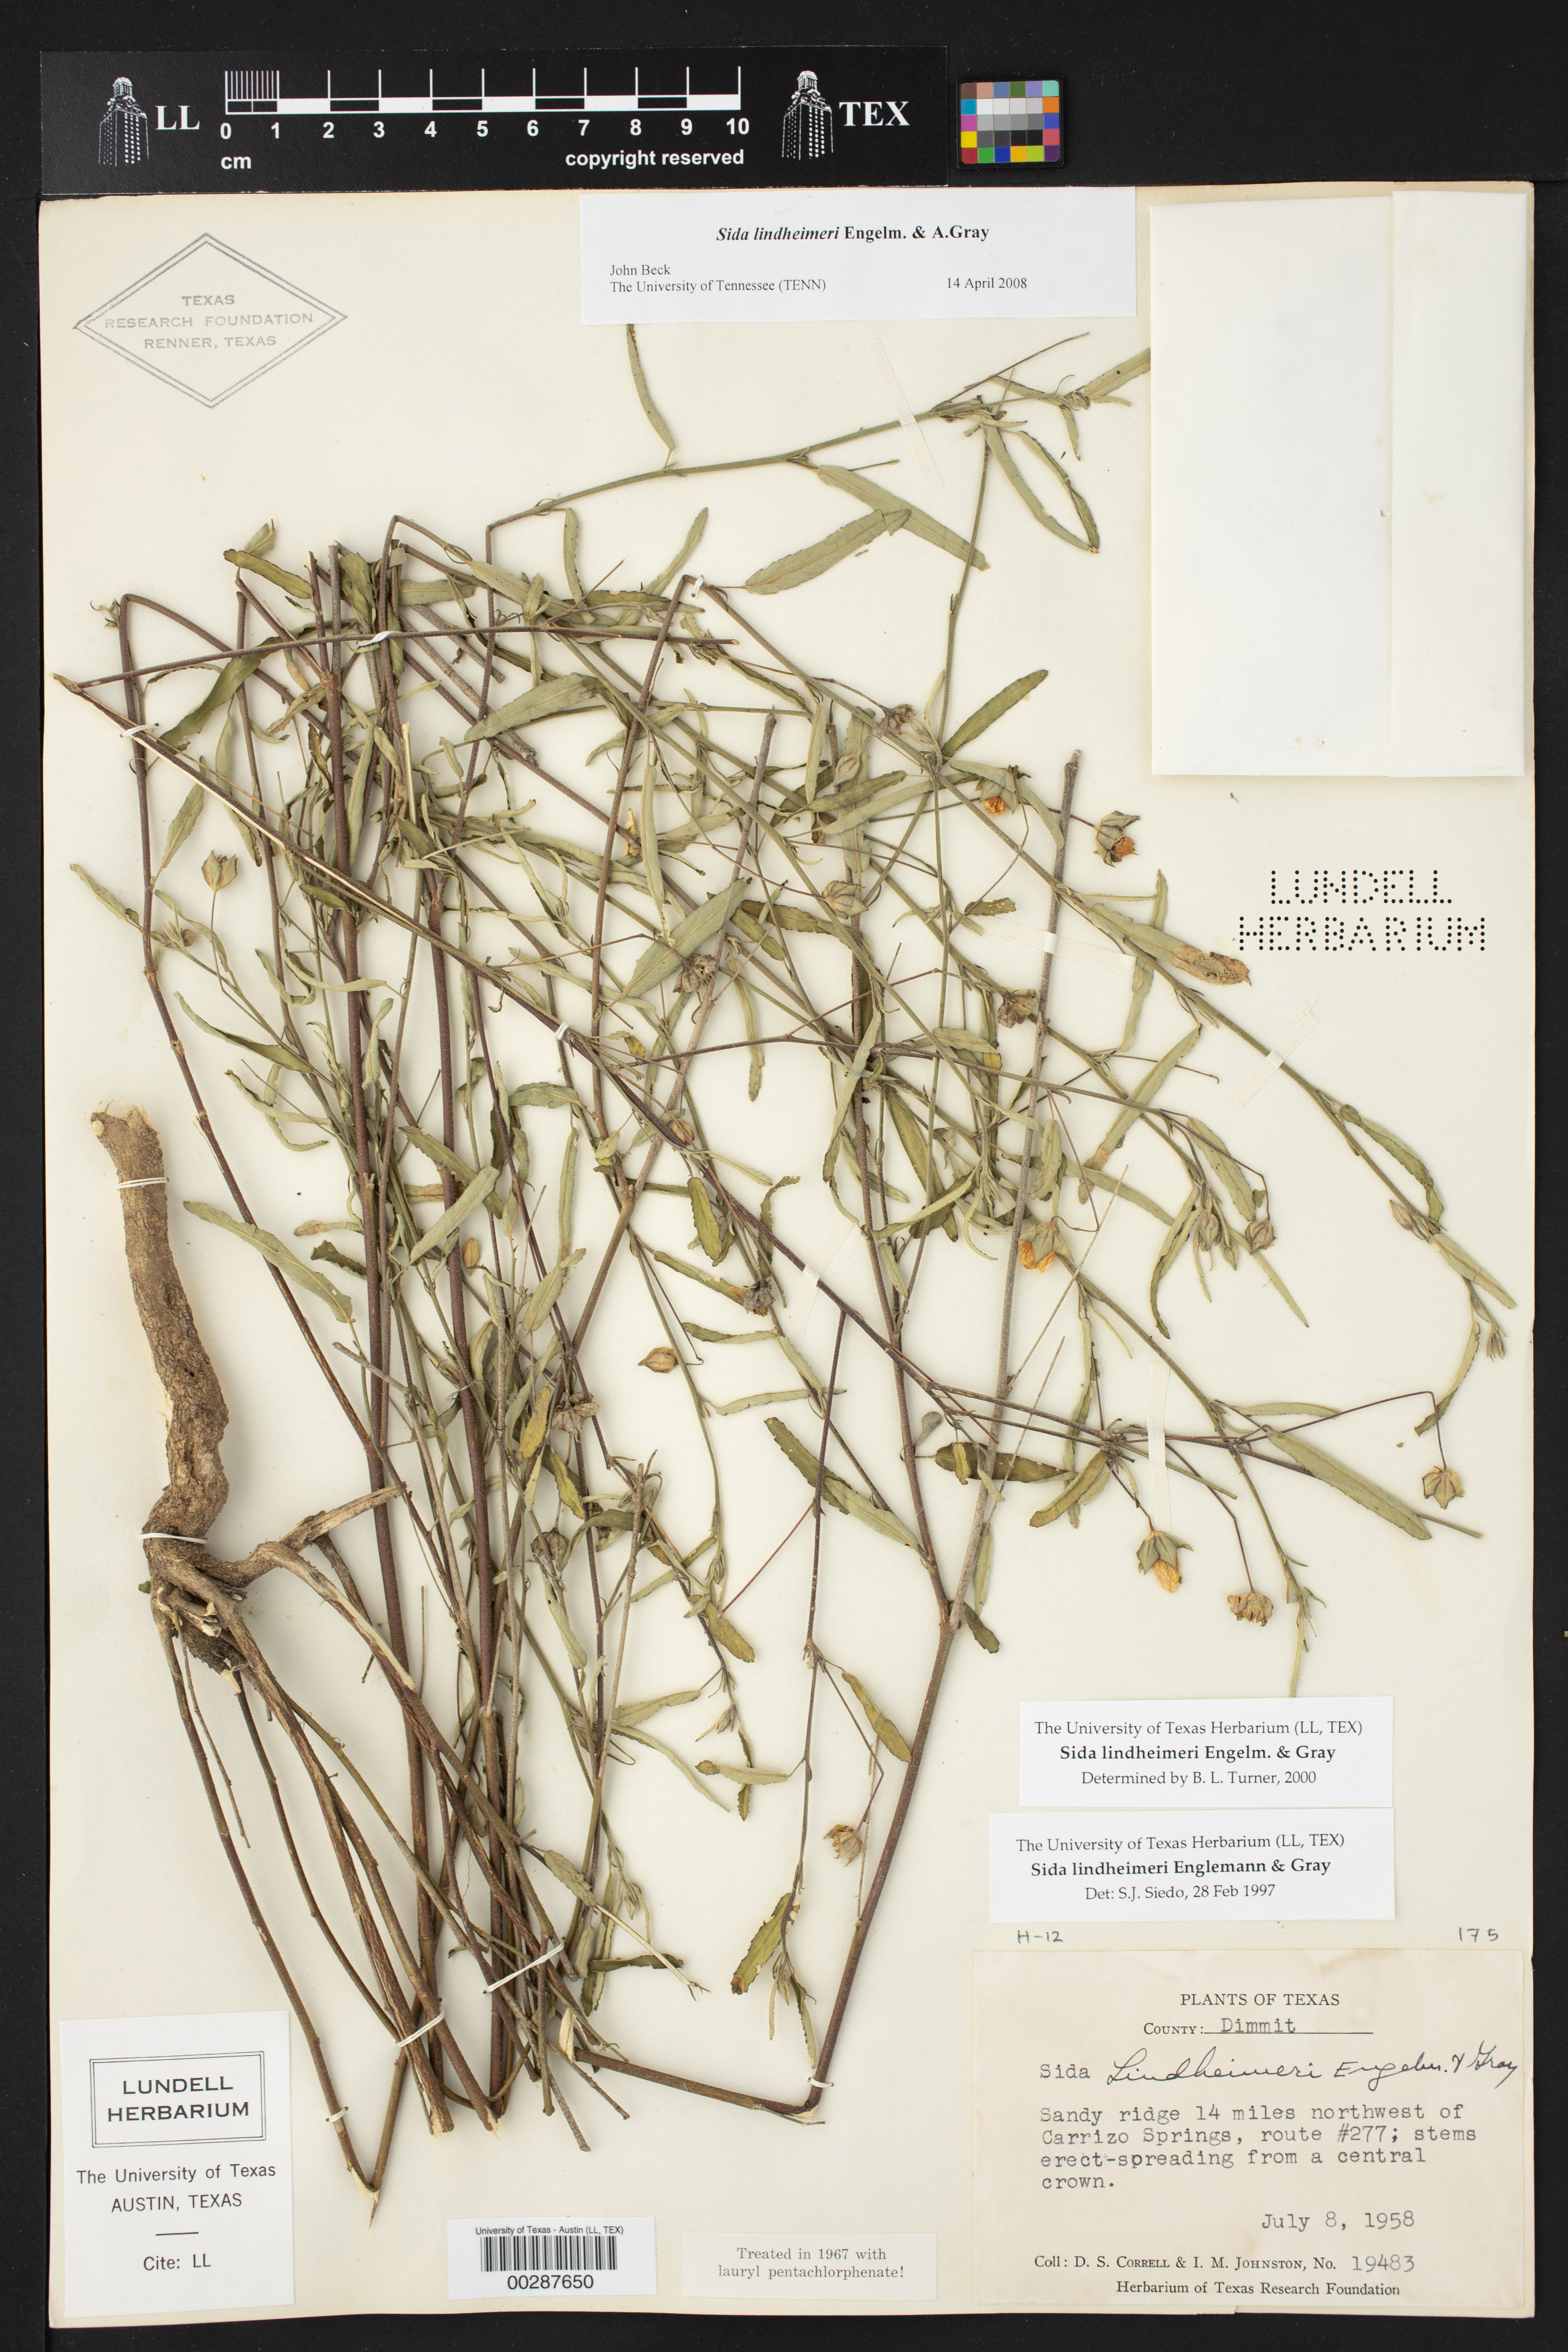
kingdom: Plantae
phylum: Tracheophyta
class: Magnoliopsida
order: Malvales
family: Malvaceae
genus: Sida
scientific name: Sida lindheimeri
